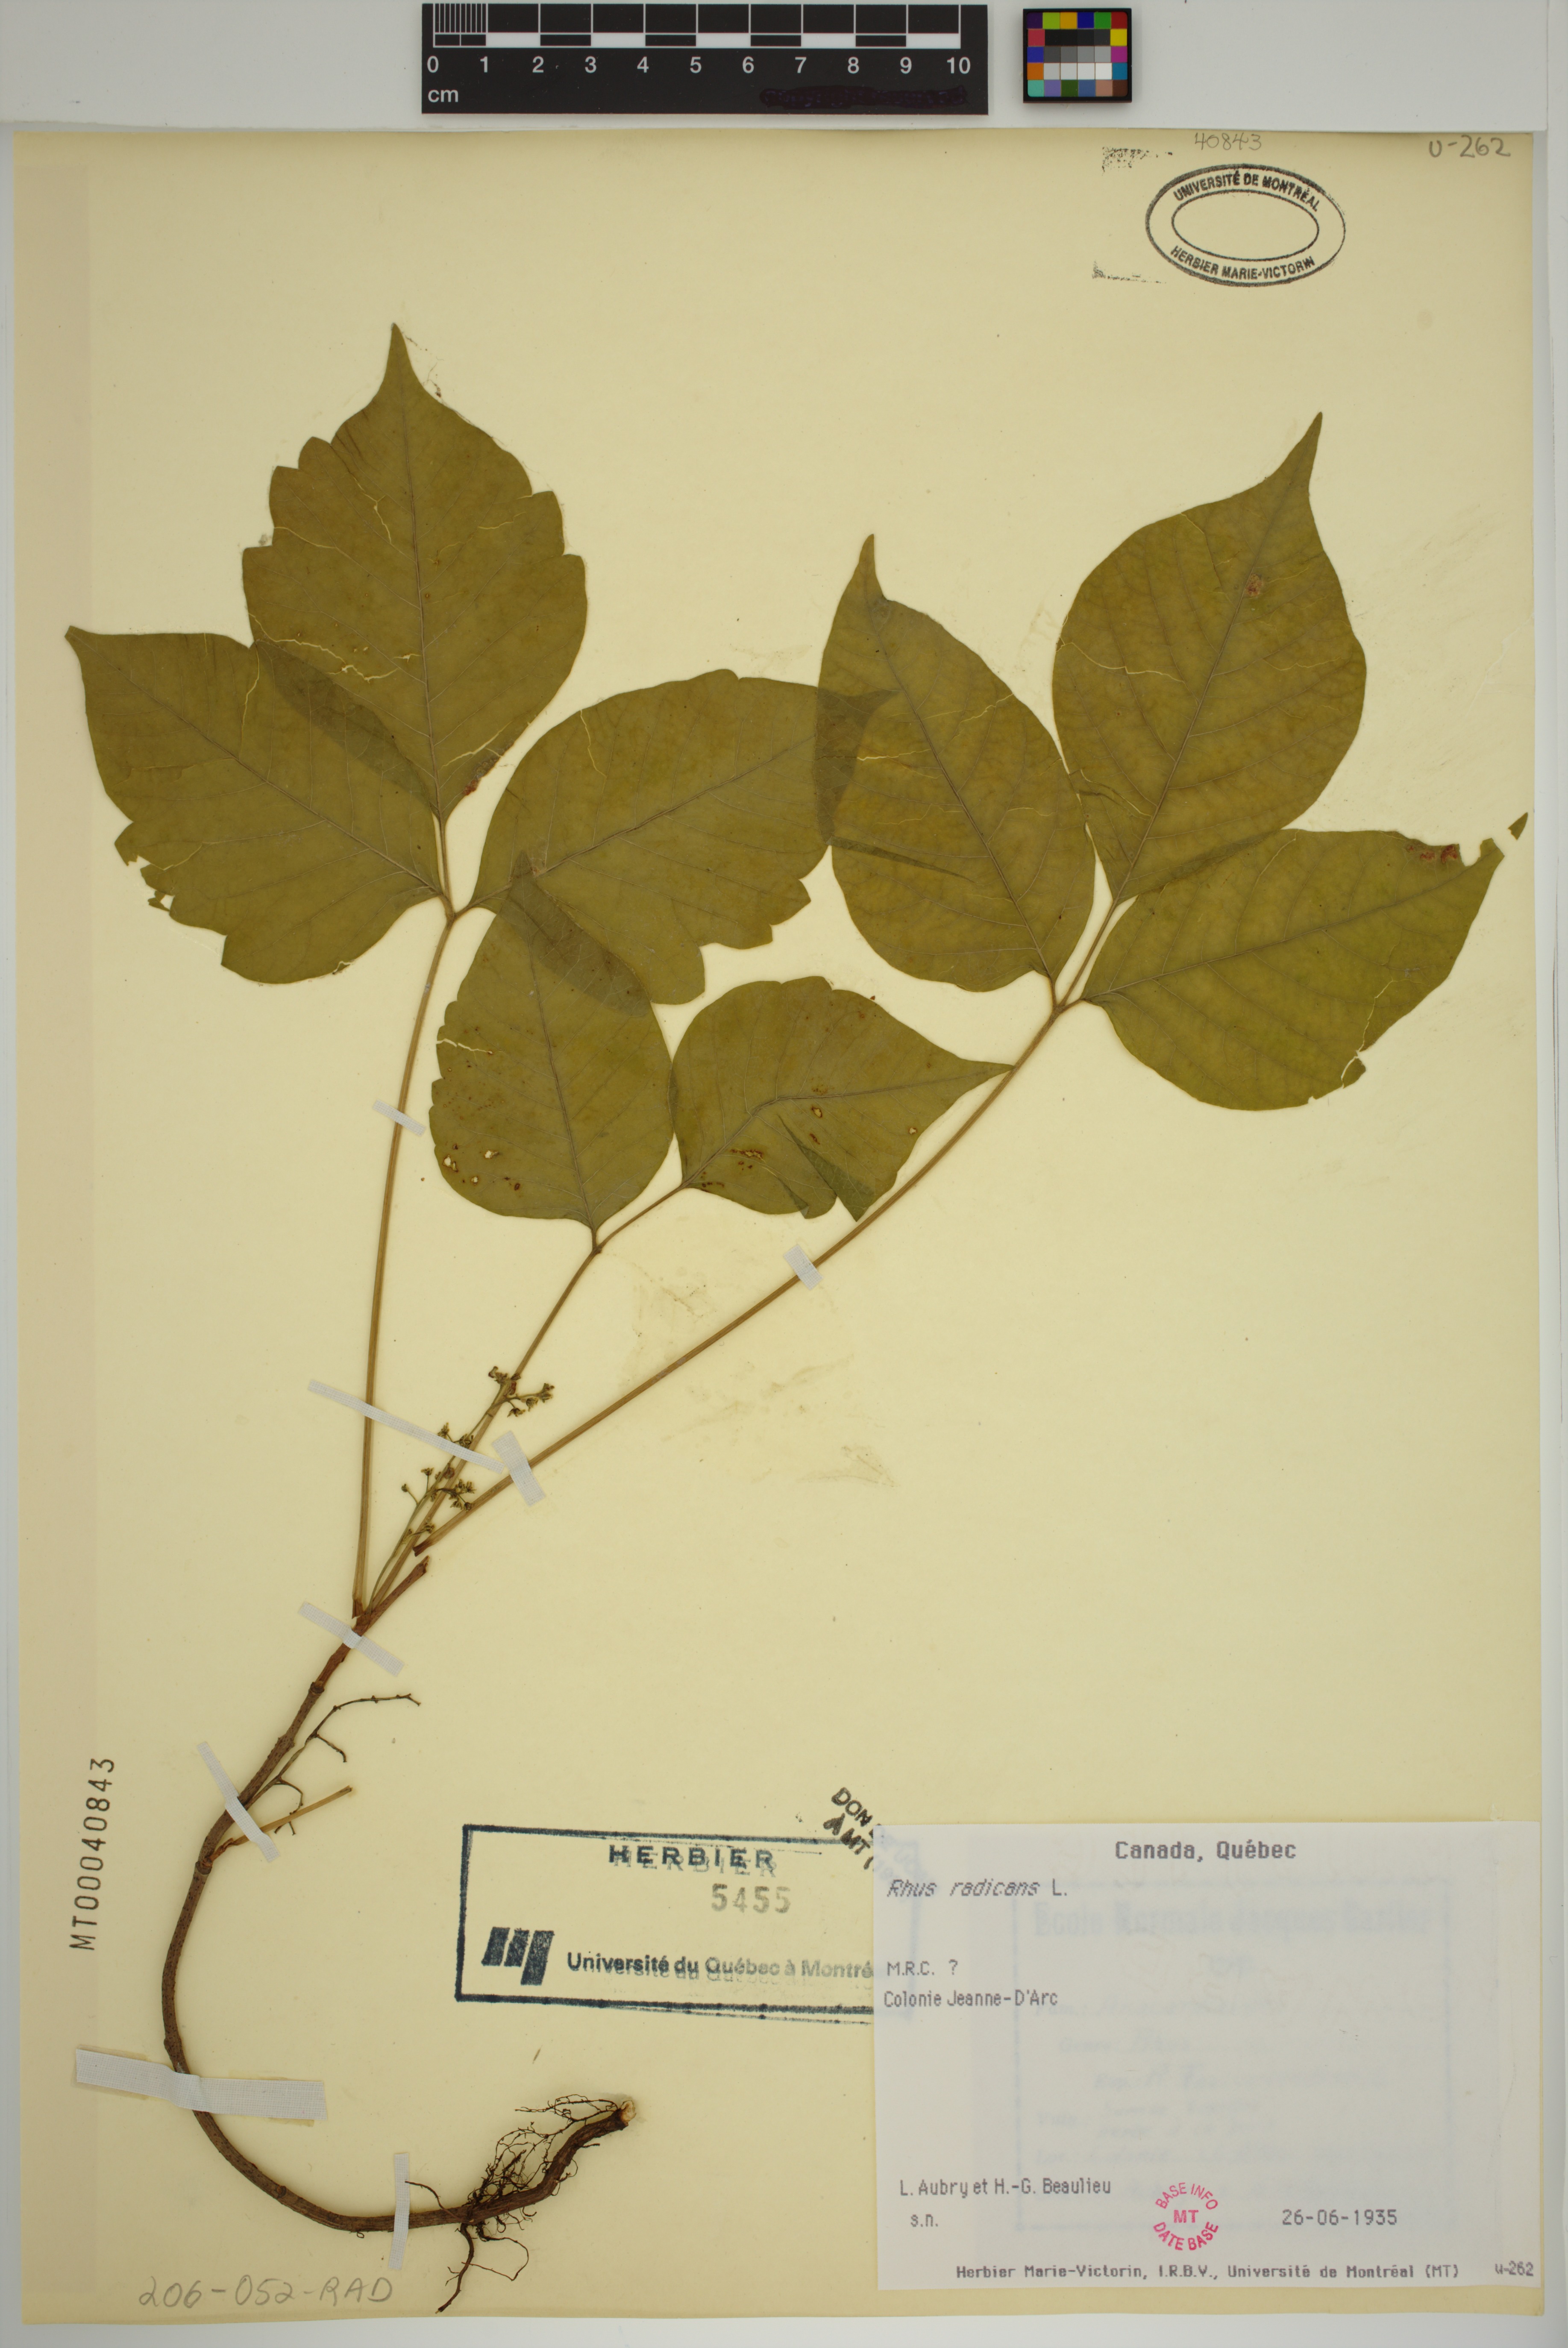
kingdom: Plantae
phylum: Tracheophyta
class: Magnoliopsida
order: Sapindales
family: Anacardiaceae
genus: Toxicodendron
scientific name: Toxicodendron radicans
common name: Poison ivy
